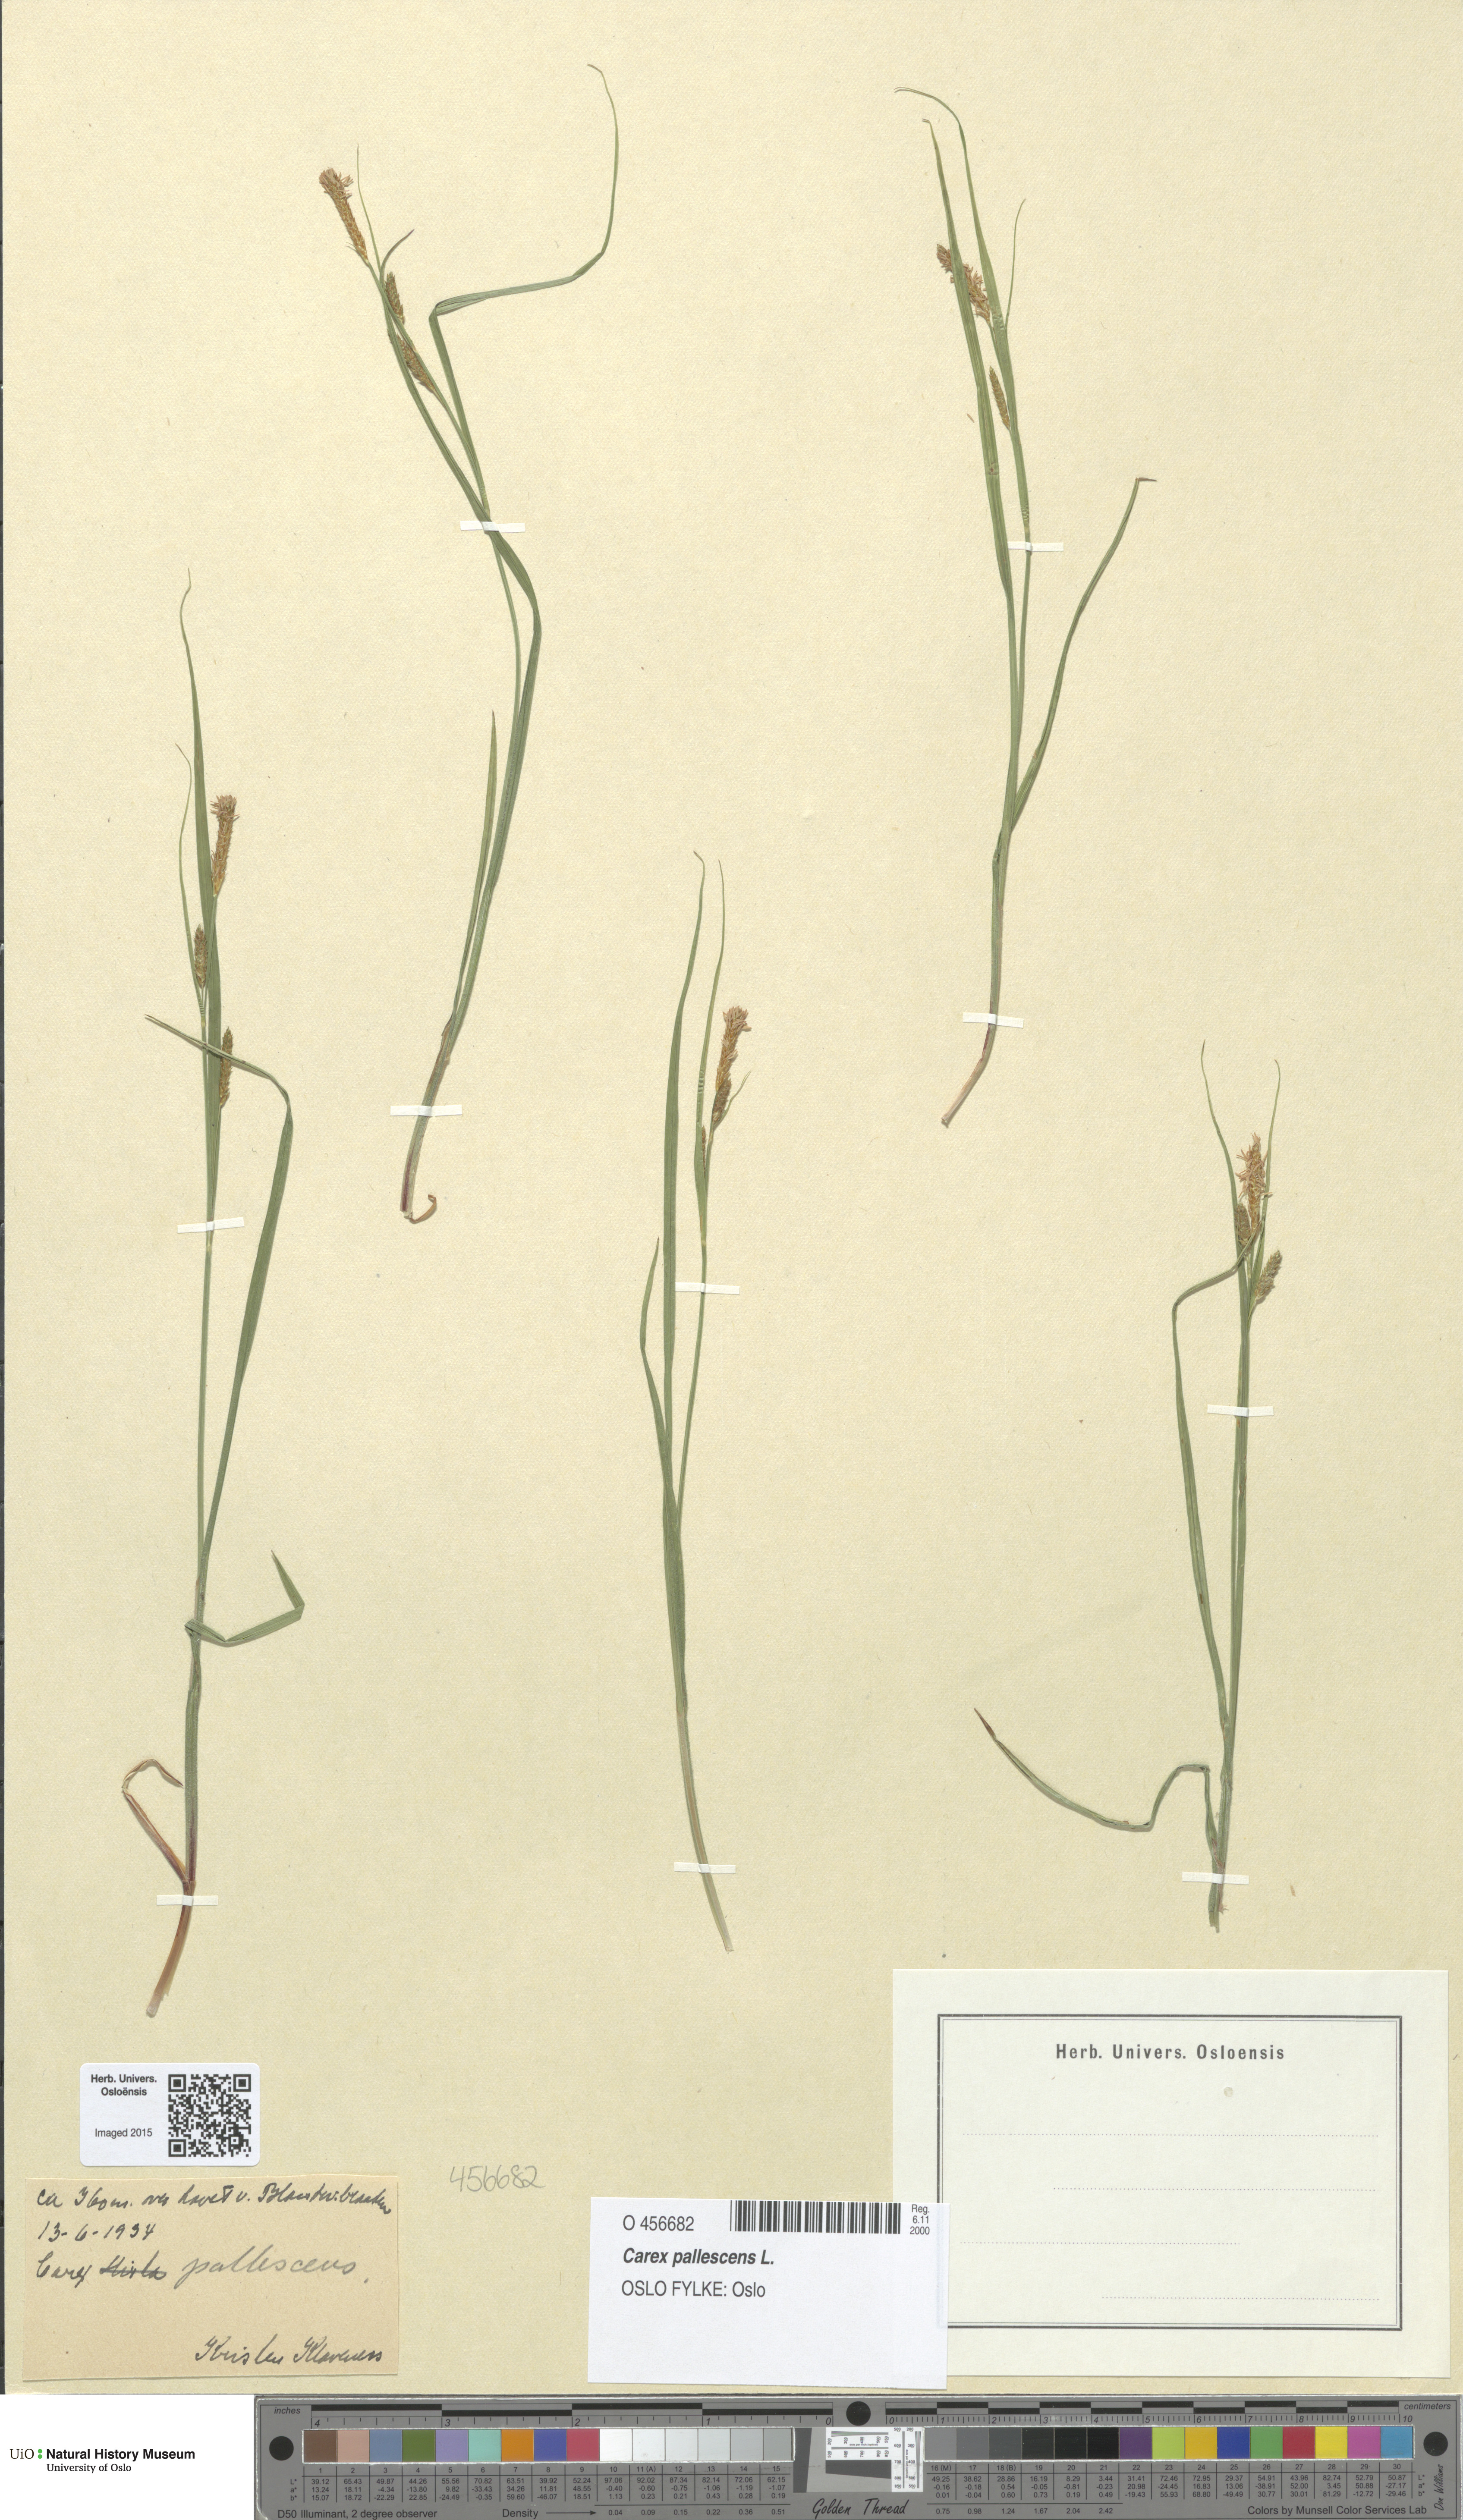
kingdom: Plantae
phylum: Tracheophyta
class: Liliopsida
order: Poales
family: Cyperaceae
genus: Carex
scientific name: Carex pallescens
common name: Pale sedge
